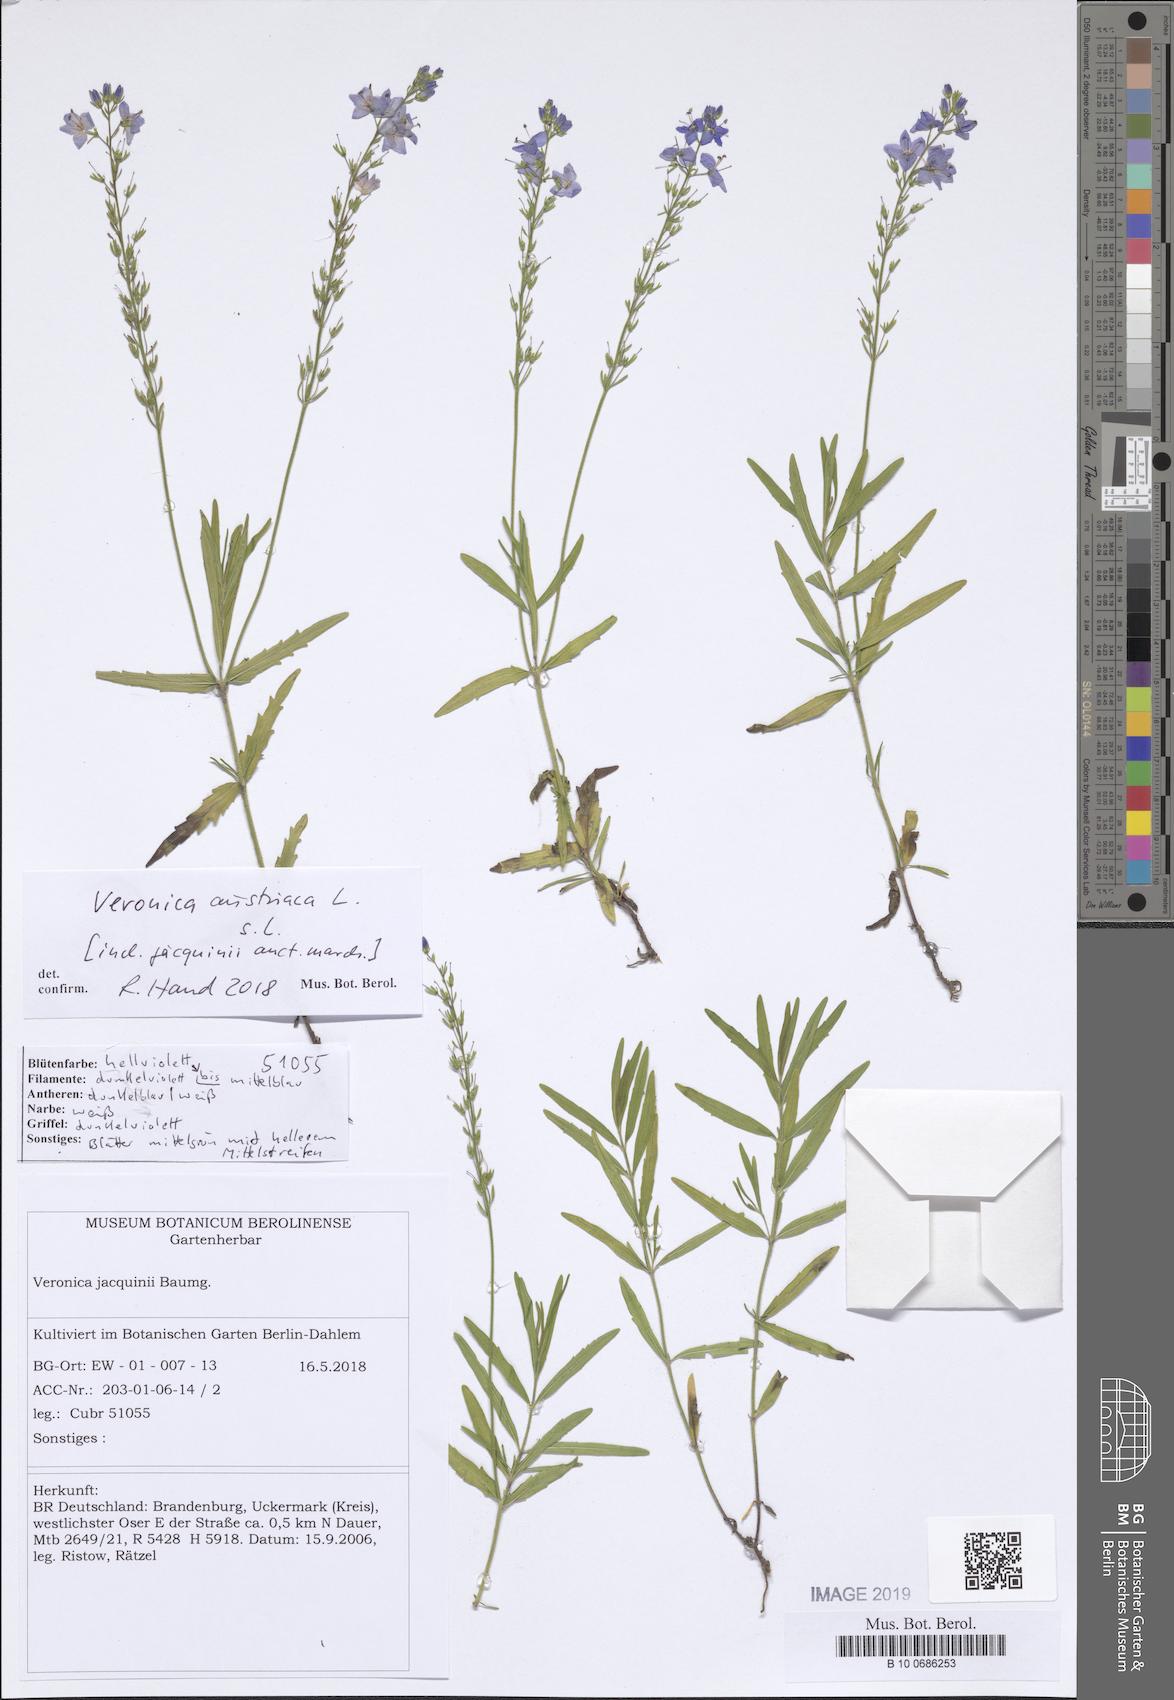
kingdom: Plantae
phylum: Tracheophyta
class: Magnoliopsida
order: Lamiales
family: Plantaginaceae
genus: Veronica
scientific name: Veronica austriaca
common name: Large speedwell
